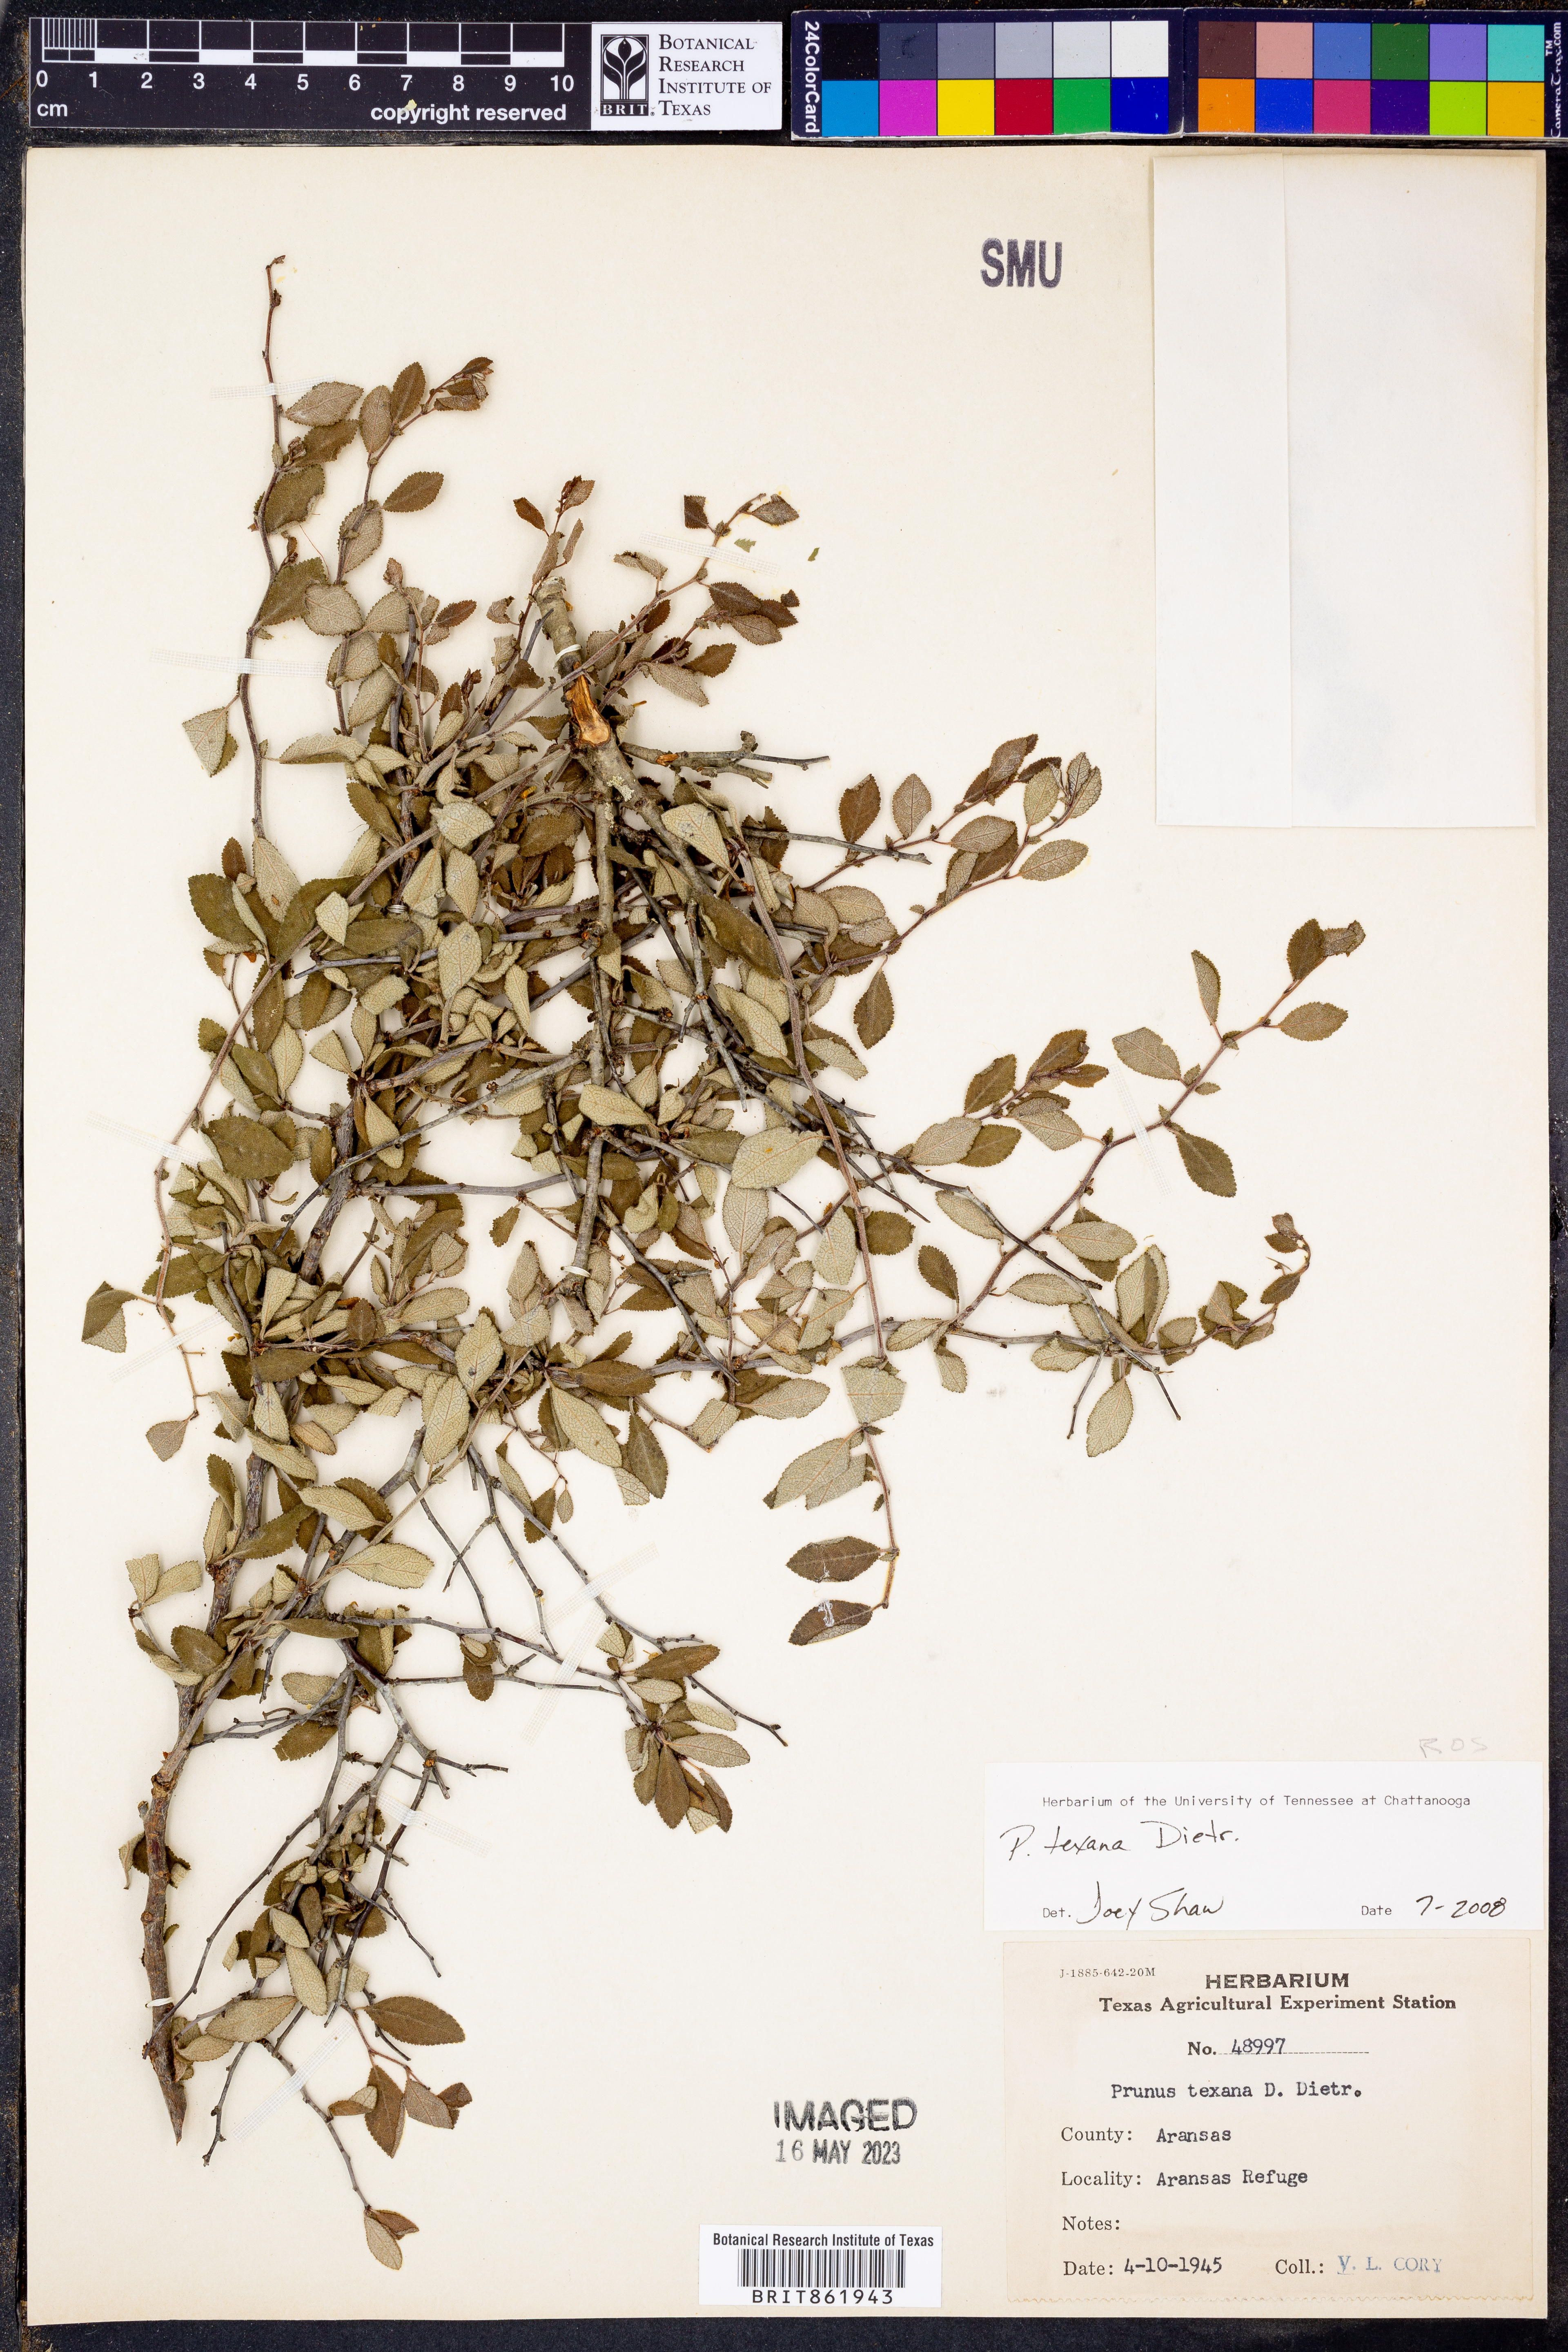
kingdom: Plantae
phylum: Tracheophyta
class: Magnoliopsida
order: Rosales
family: Rosaceae
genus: Prunus
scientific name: Prunus texana
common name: Texas almond cherry
